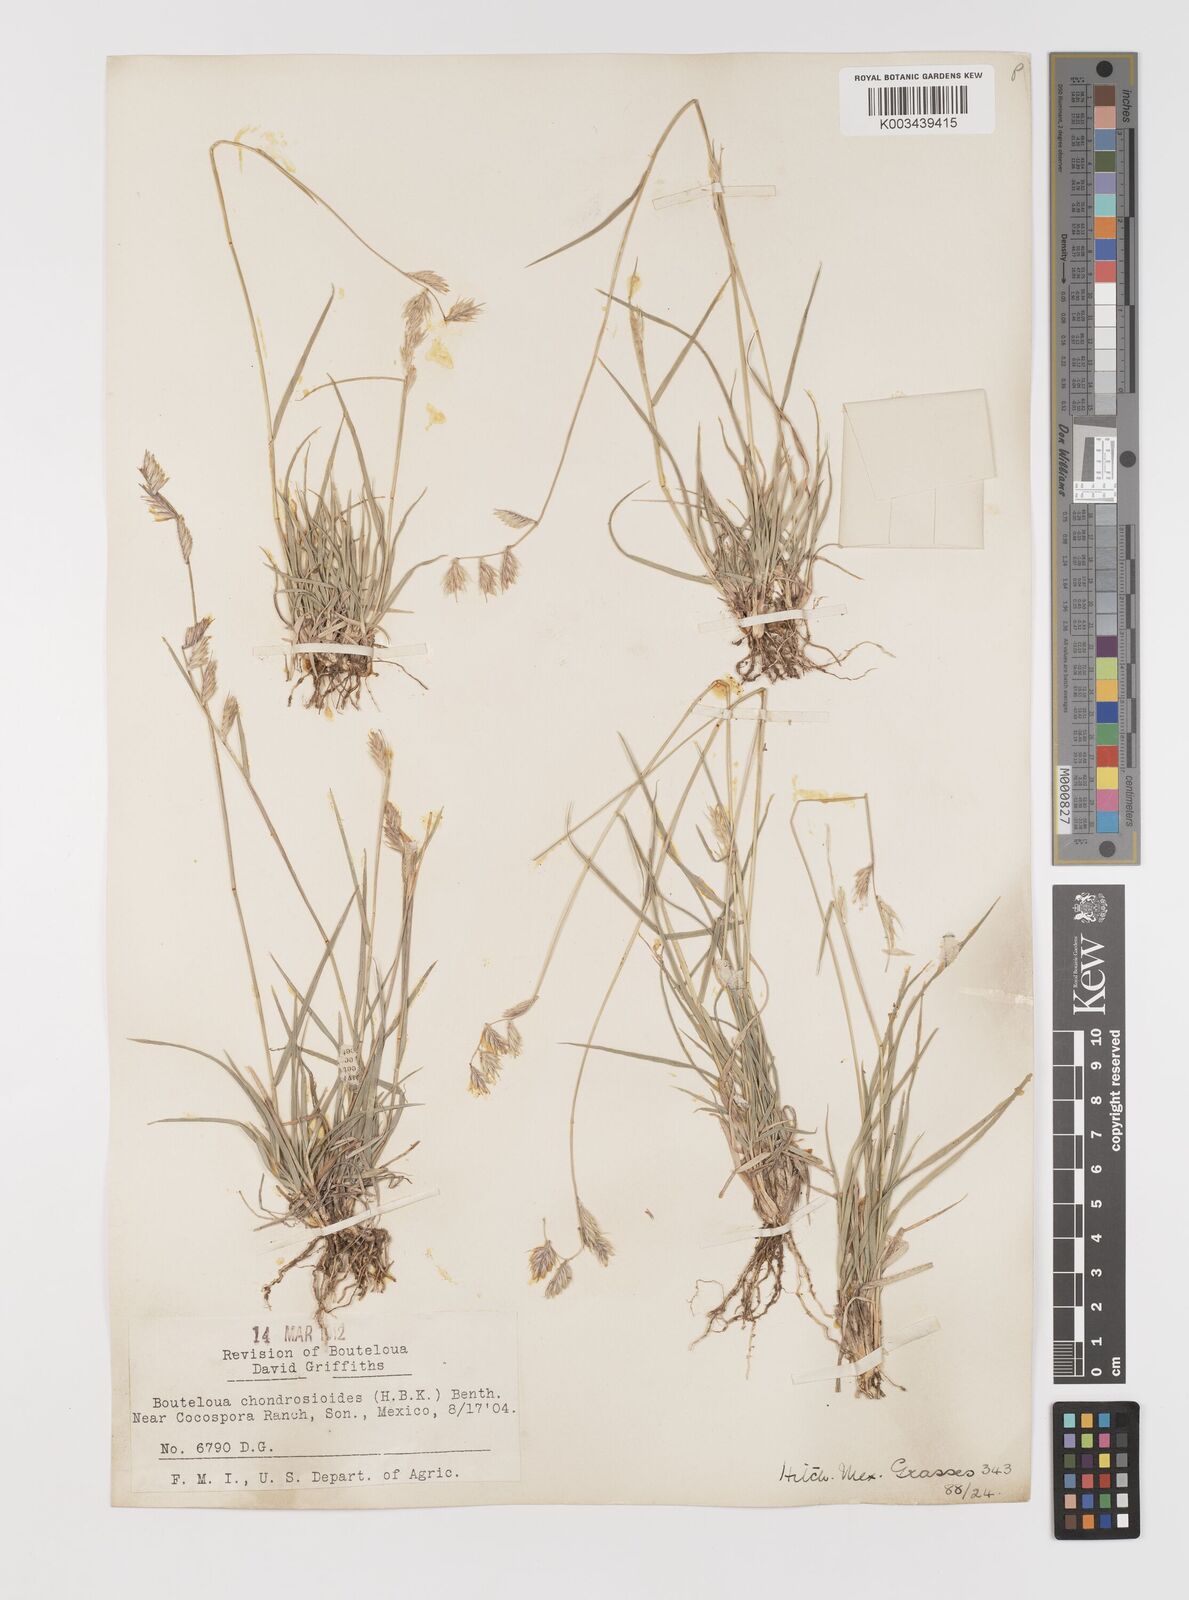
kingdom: Plantae
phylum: Tracheophyta
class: Liliopsida
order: Poales
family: Poaceae
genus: Bouteloua
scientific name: Bouteloua chondrosioides
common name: Sprucetop grama
